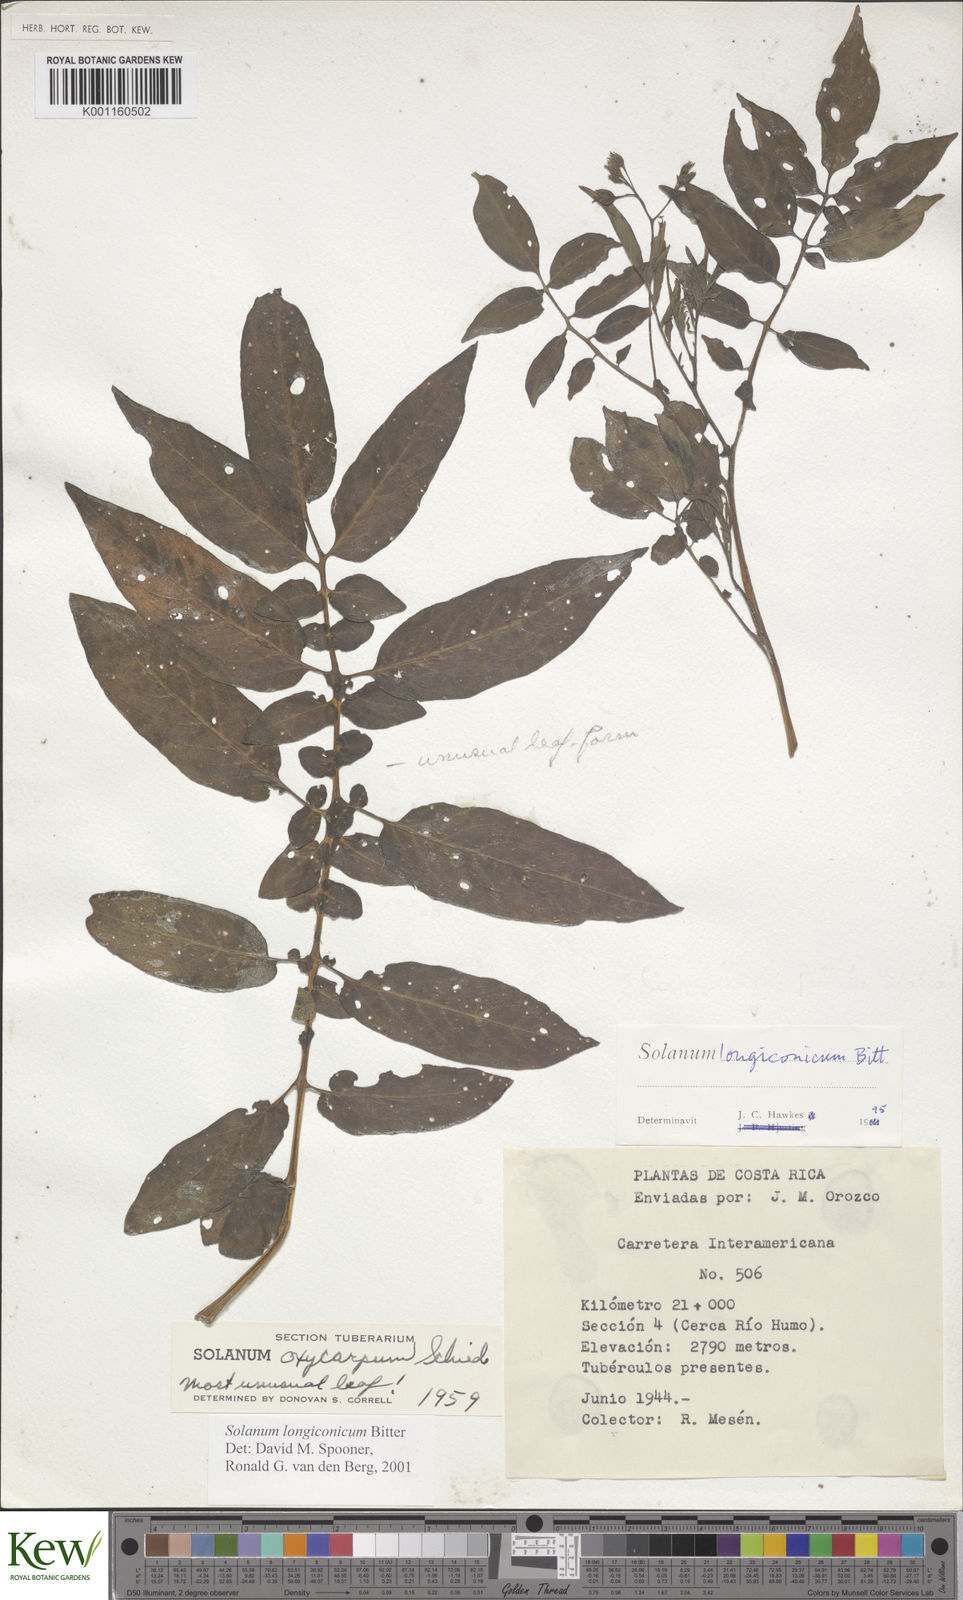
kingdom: Plantae
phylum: Tracheophyta
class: Magnoliopsida
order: Solanales
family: Solanaceae
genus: Solanum
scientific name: Solanum longiconicum
